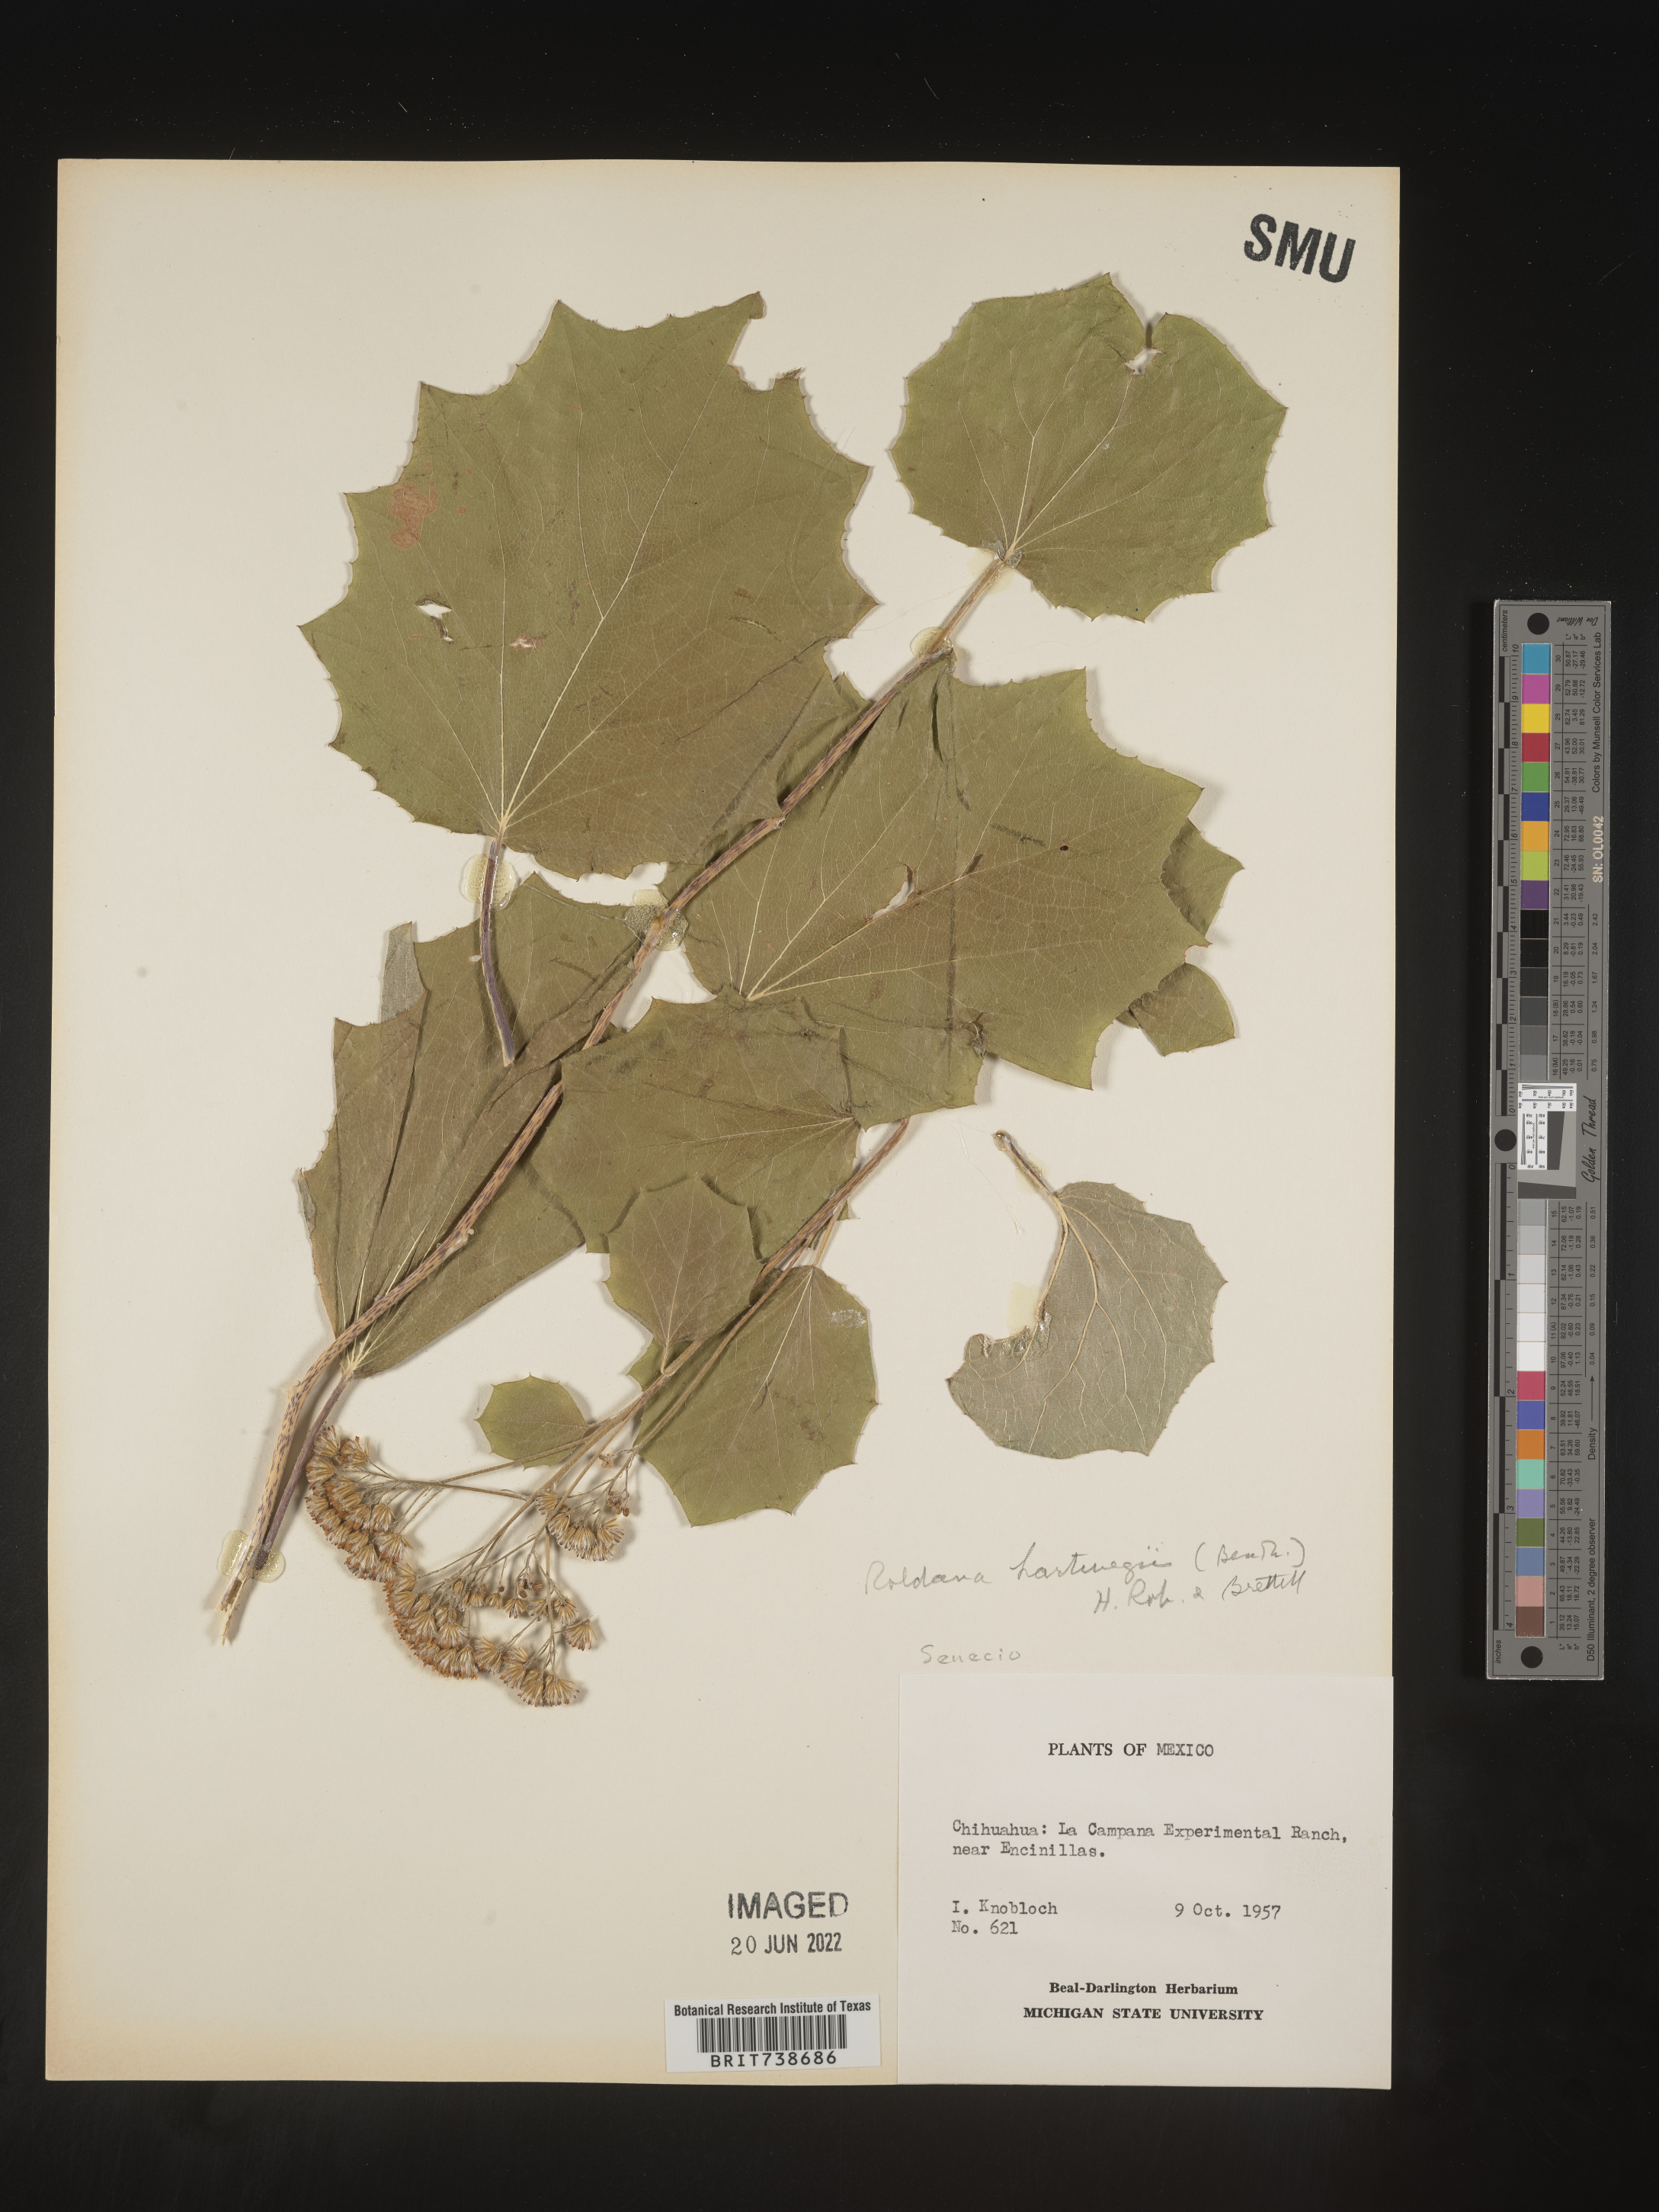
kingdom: Plantae
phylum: Tracheophyta
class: Magnoliopsida
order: Asterales
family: Asteraceae
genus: Roldana
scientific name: Roldana
